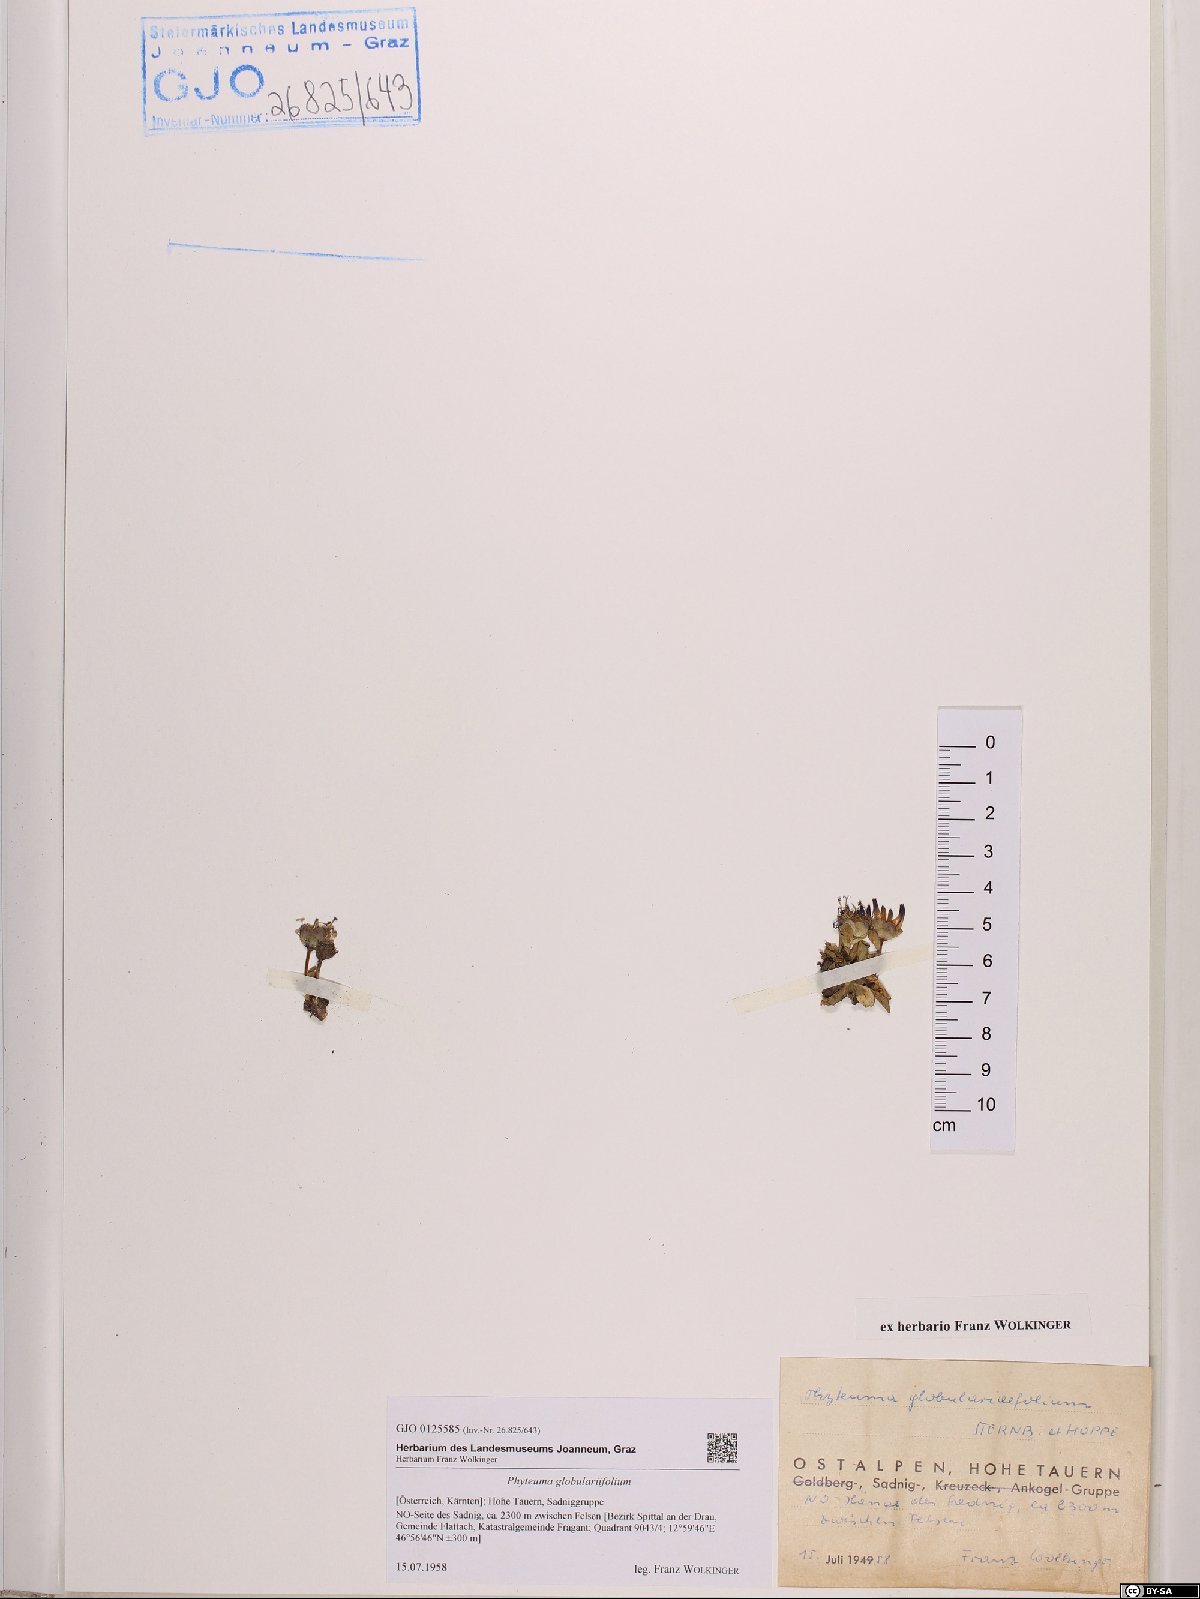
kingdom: Plantae
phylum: Tracheophyta
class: Magnoliopsida
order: Asterales
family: Campanulaceae
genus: Phyteuma
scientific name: Phyteuma globulariifolium
